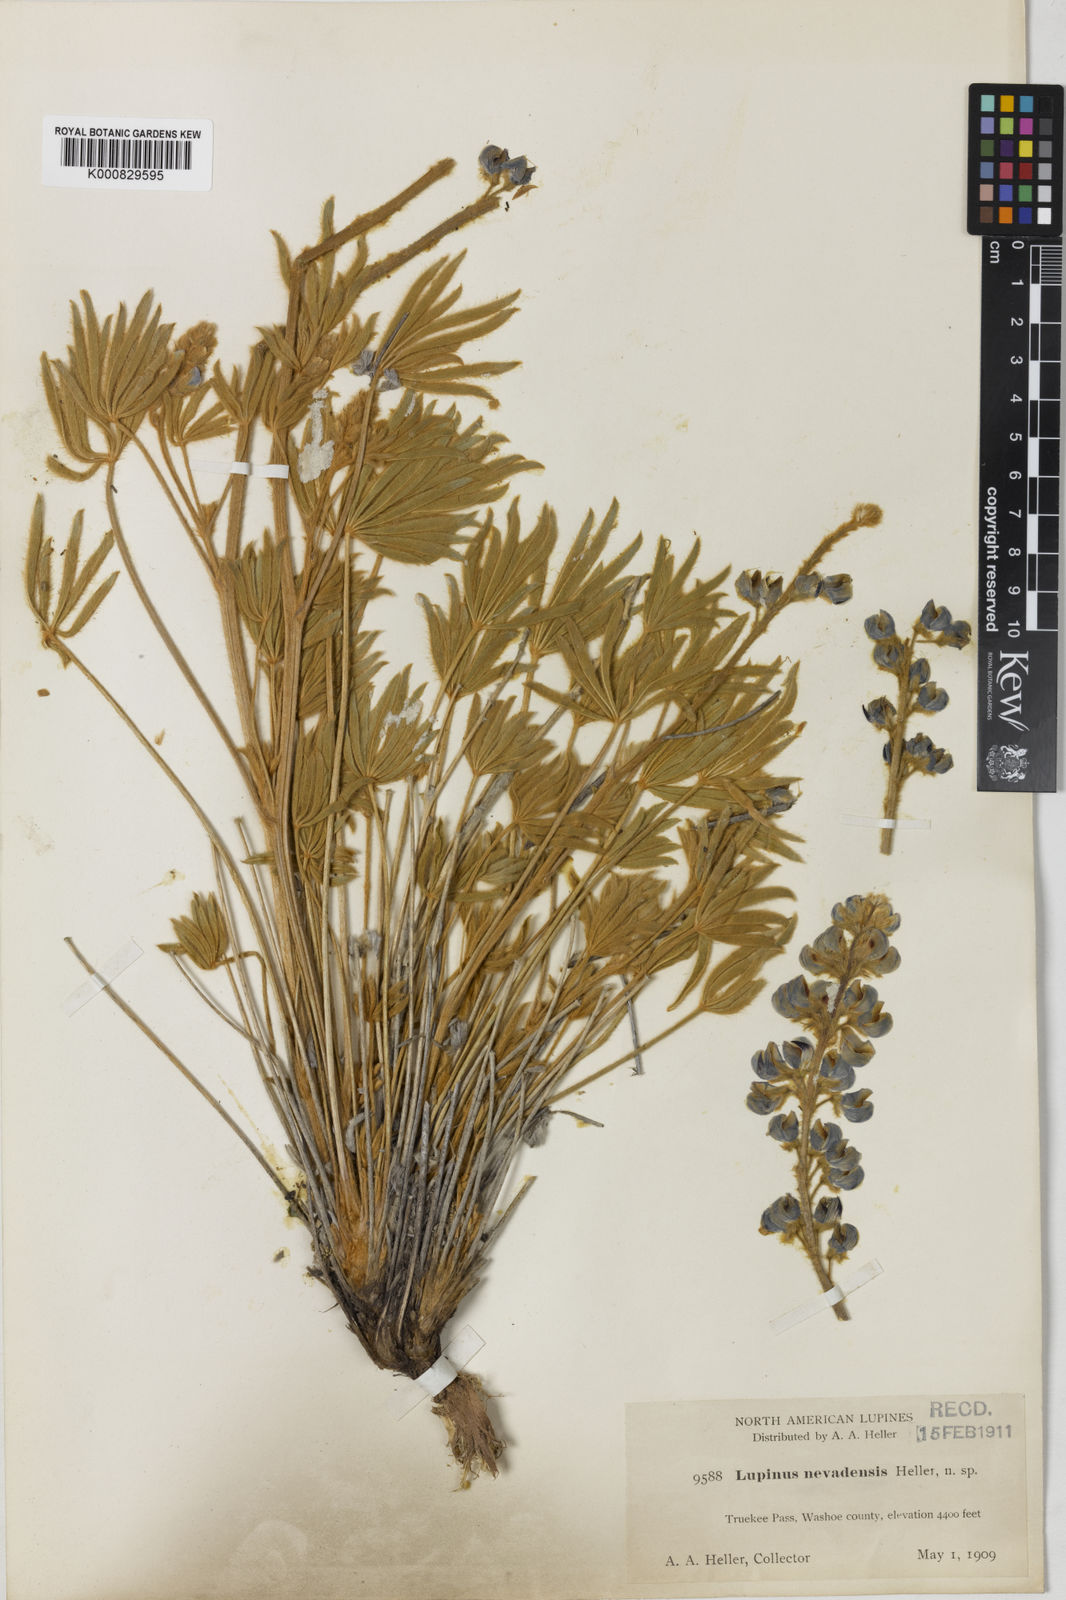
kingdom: Plantae
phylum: Tracheophyta
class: Magnoliopsida
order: Fabales
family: Fabaceae
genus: Lupinus
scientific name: Lupinus nevadensis
